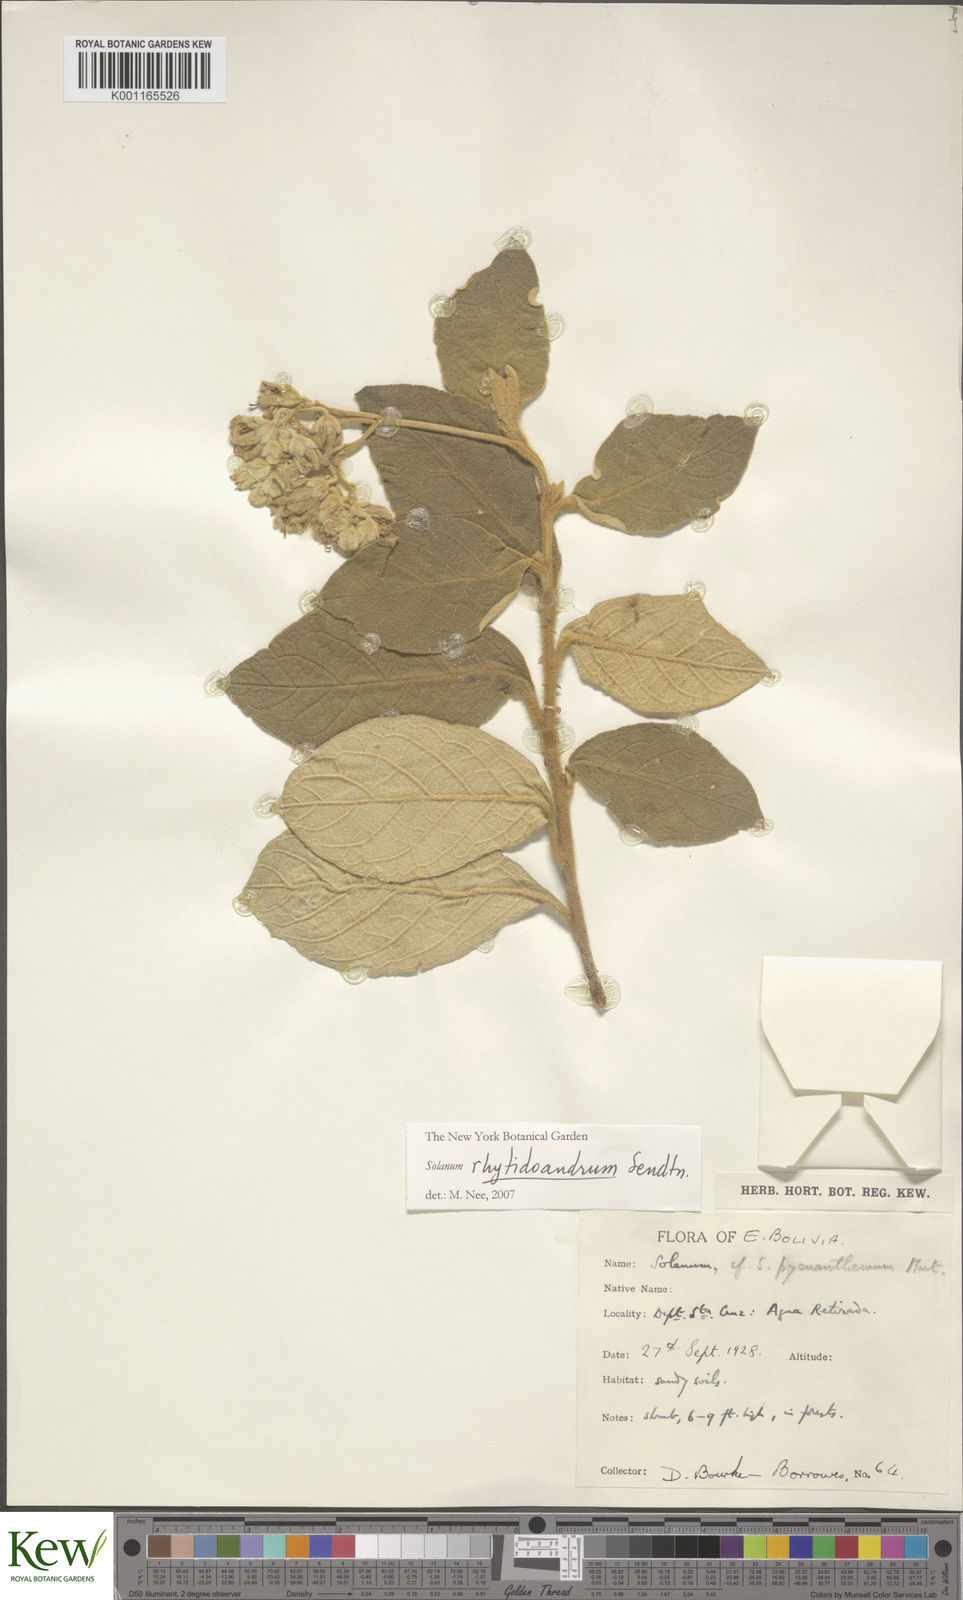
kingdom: Plantae
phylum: Tracheophyta
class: Magnoliopsida
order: Solanales
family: Solanaceae
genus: Solanum
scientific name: Solanum rhytidoandrum
